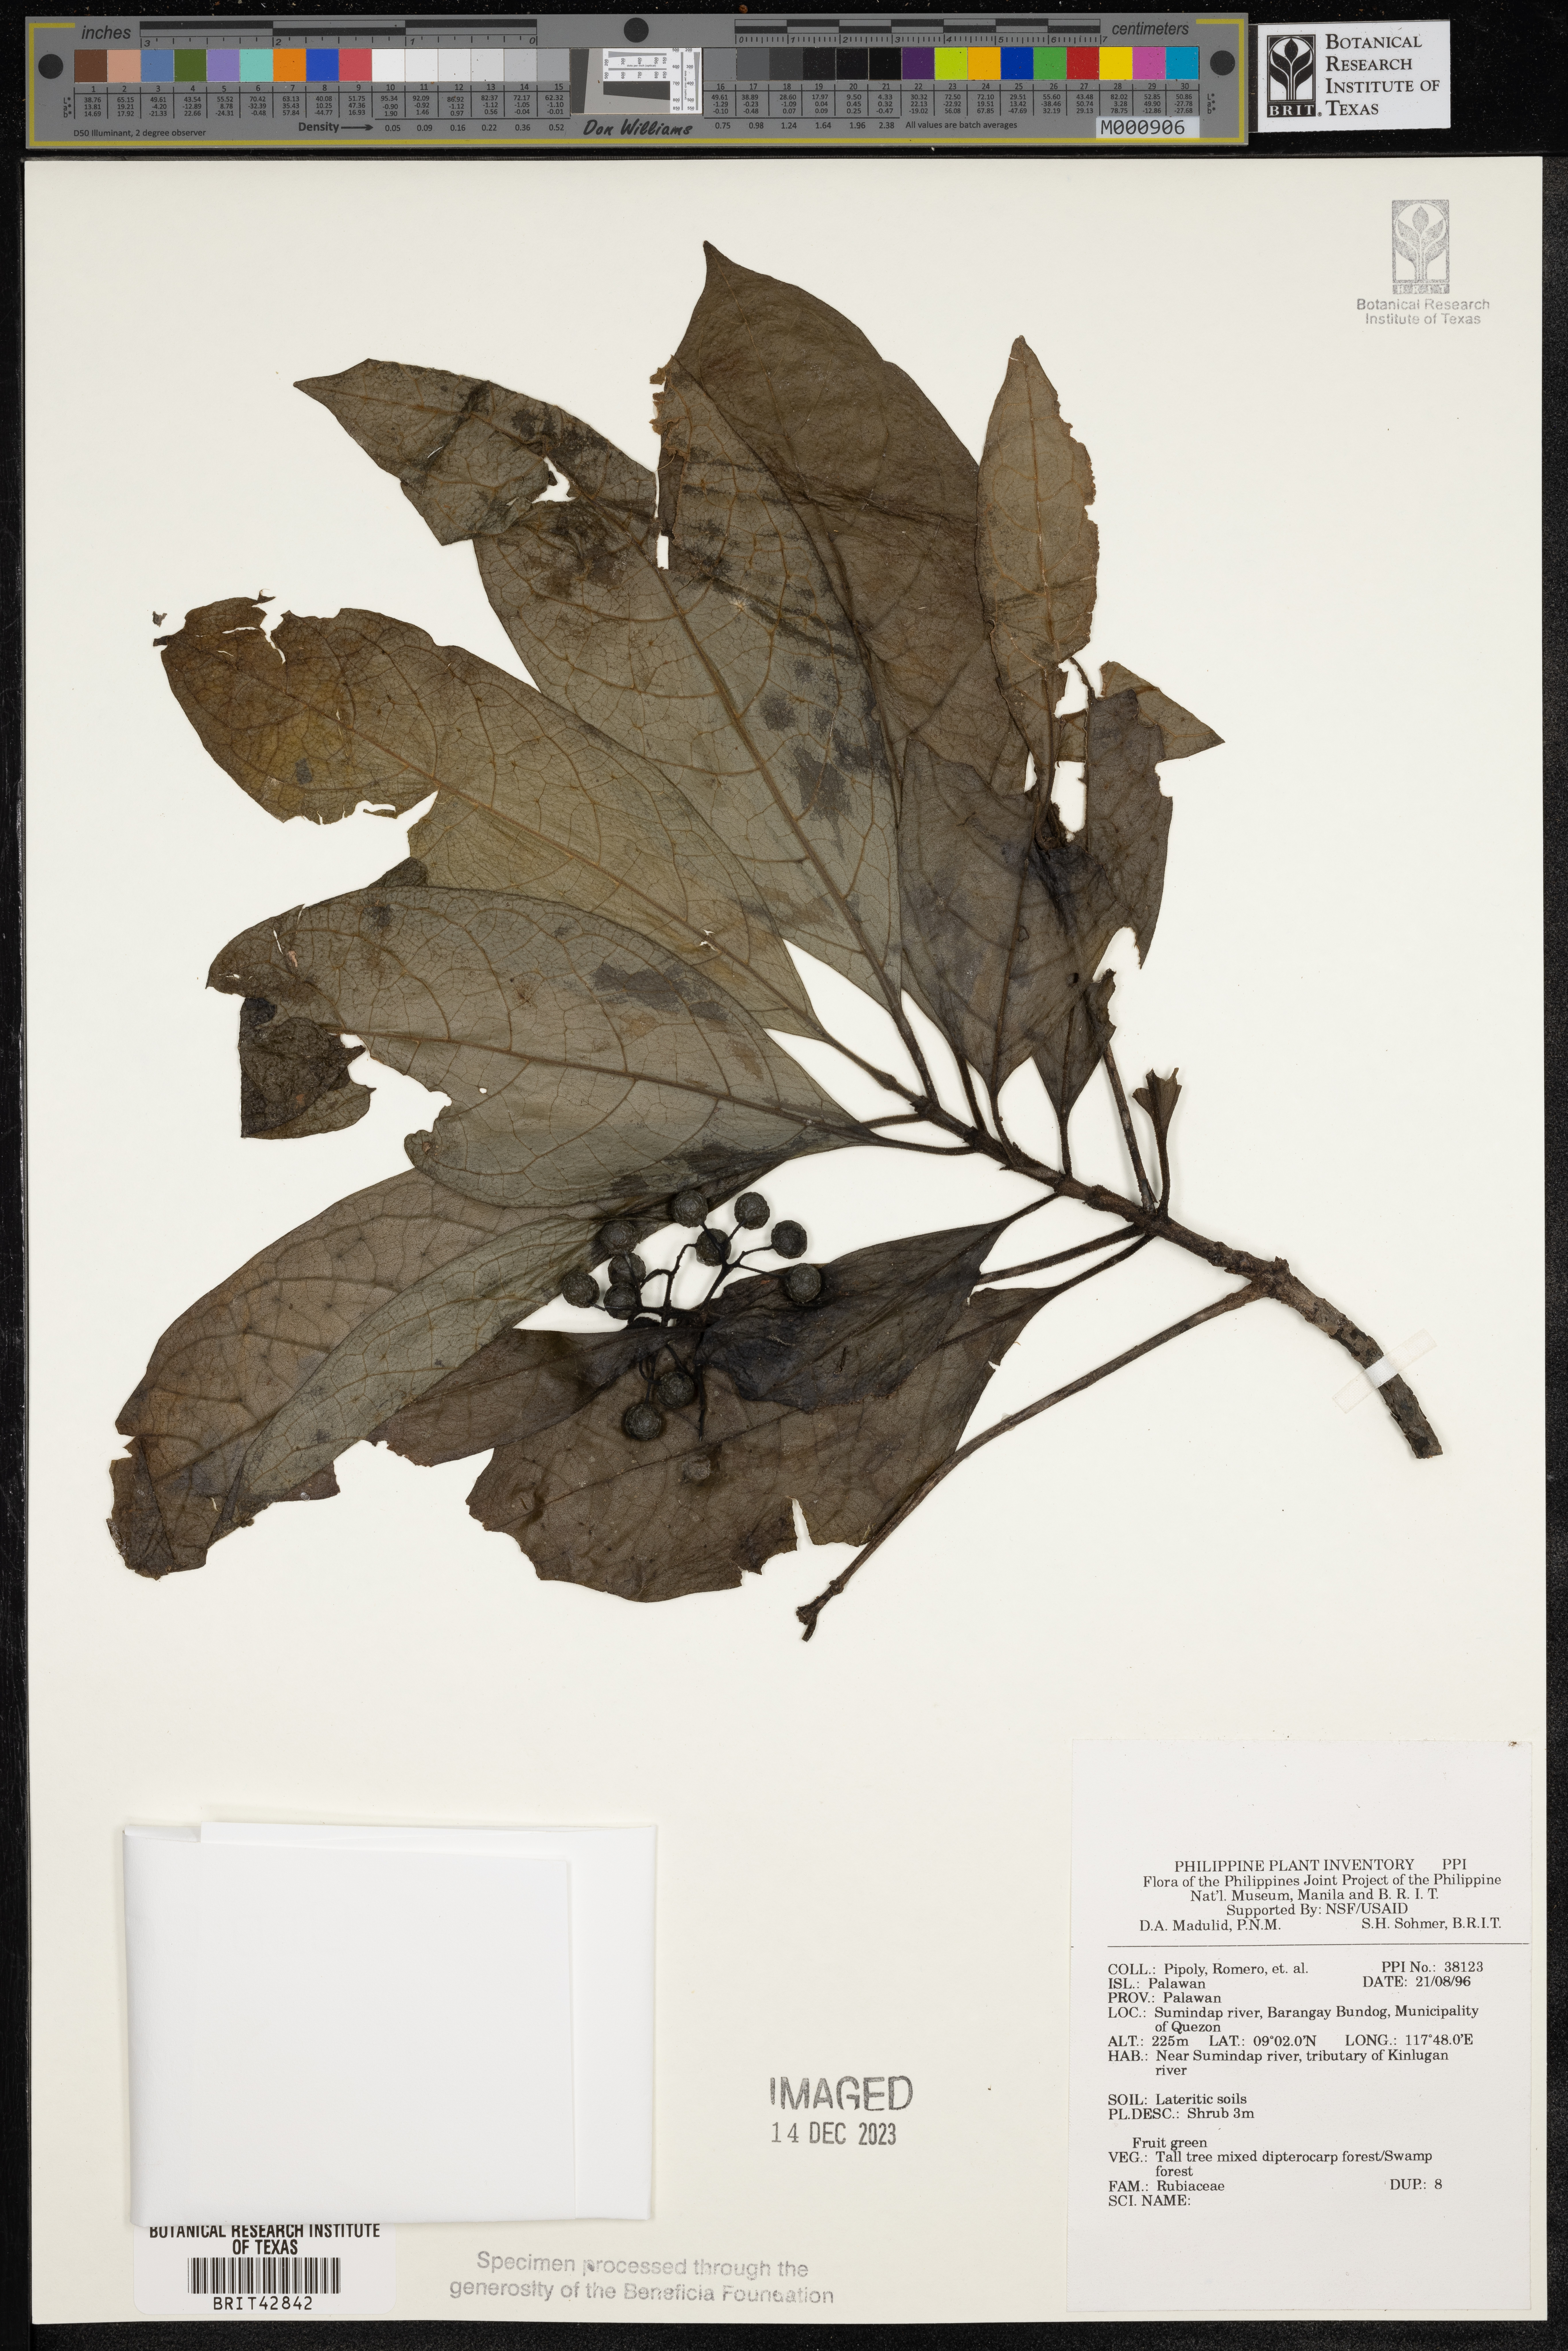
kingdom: Plantae
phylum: Tracheophyta
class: Magnoliopsida
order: Gentianales
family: Rubiaceae
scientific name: Rubiaceae
